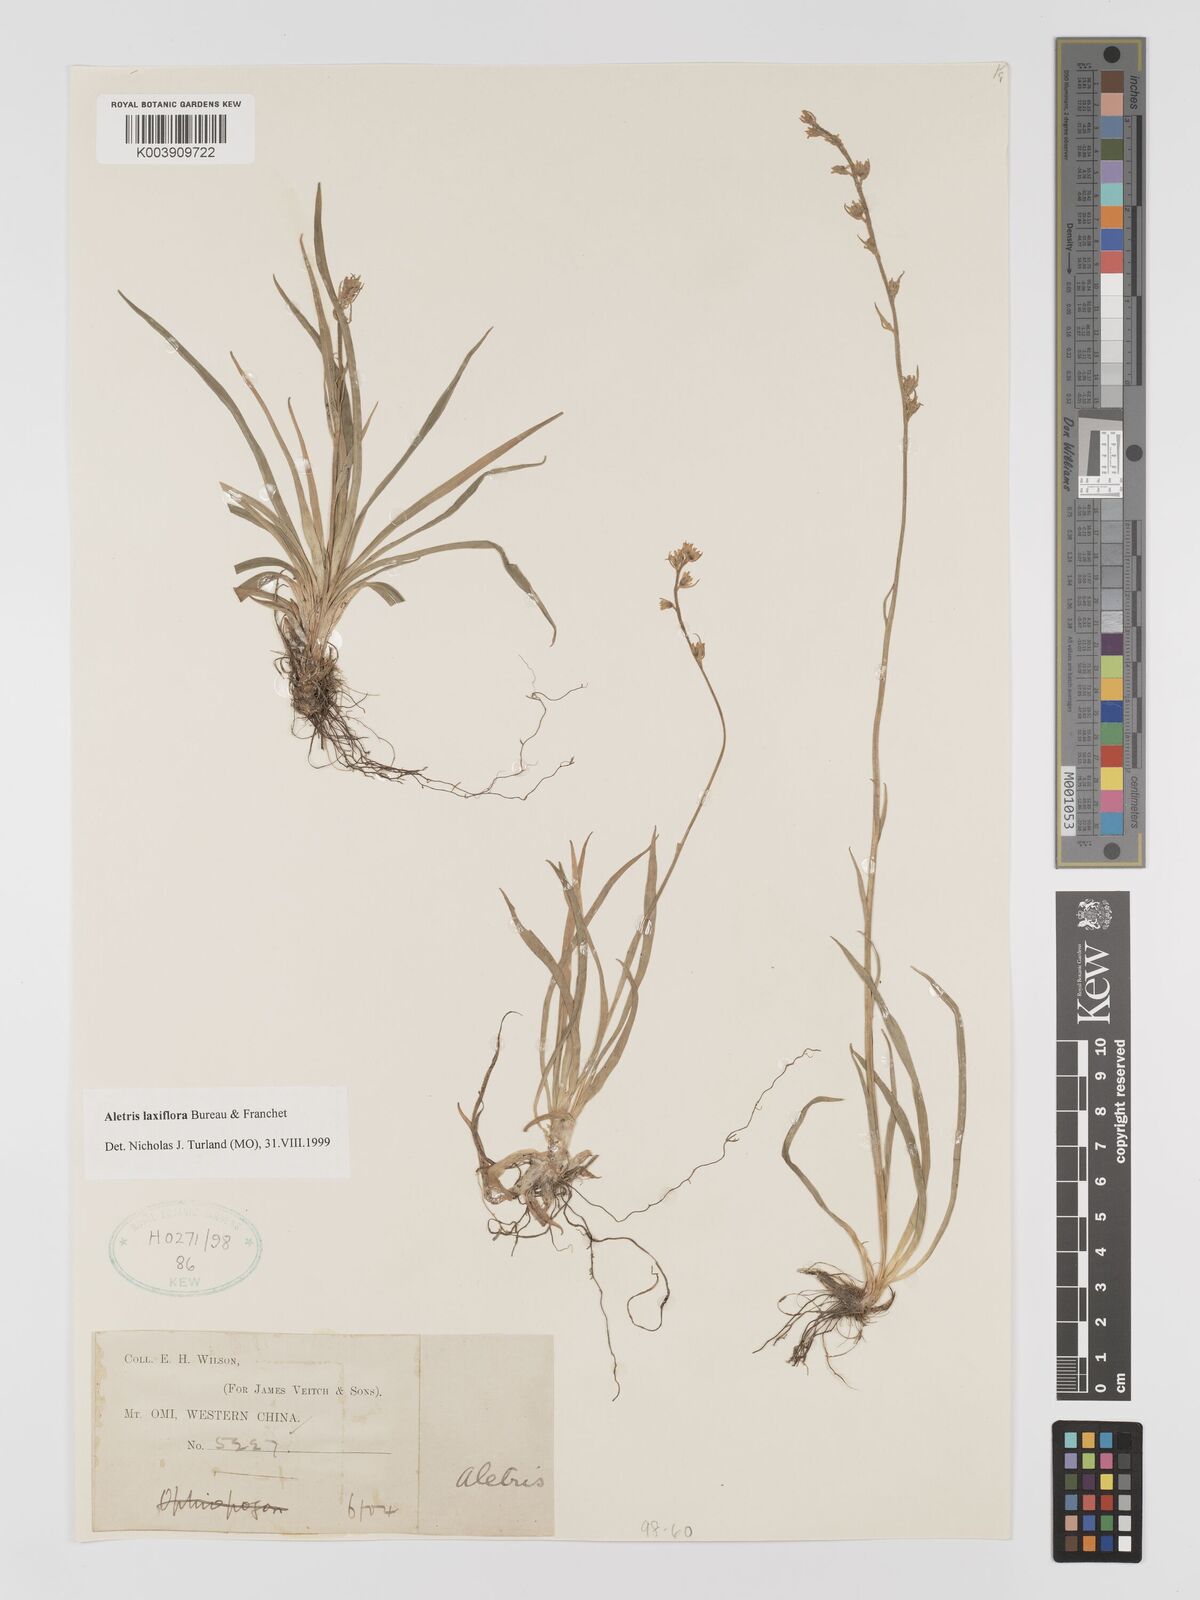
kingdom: Plantae
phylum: Tracheophyta
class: Liliopsida
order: Dioscoreales
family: Nartheciaceae
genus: Aletris
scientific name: Aletris laxiflora
